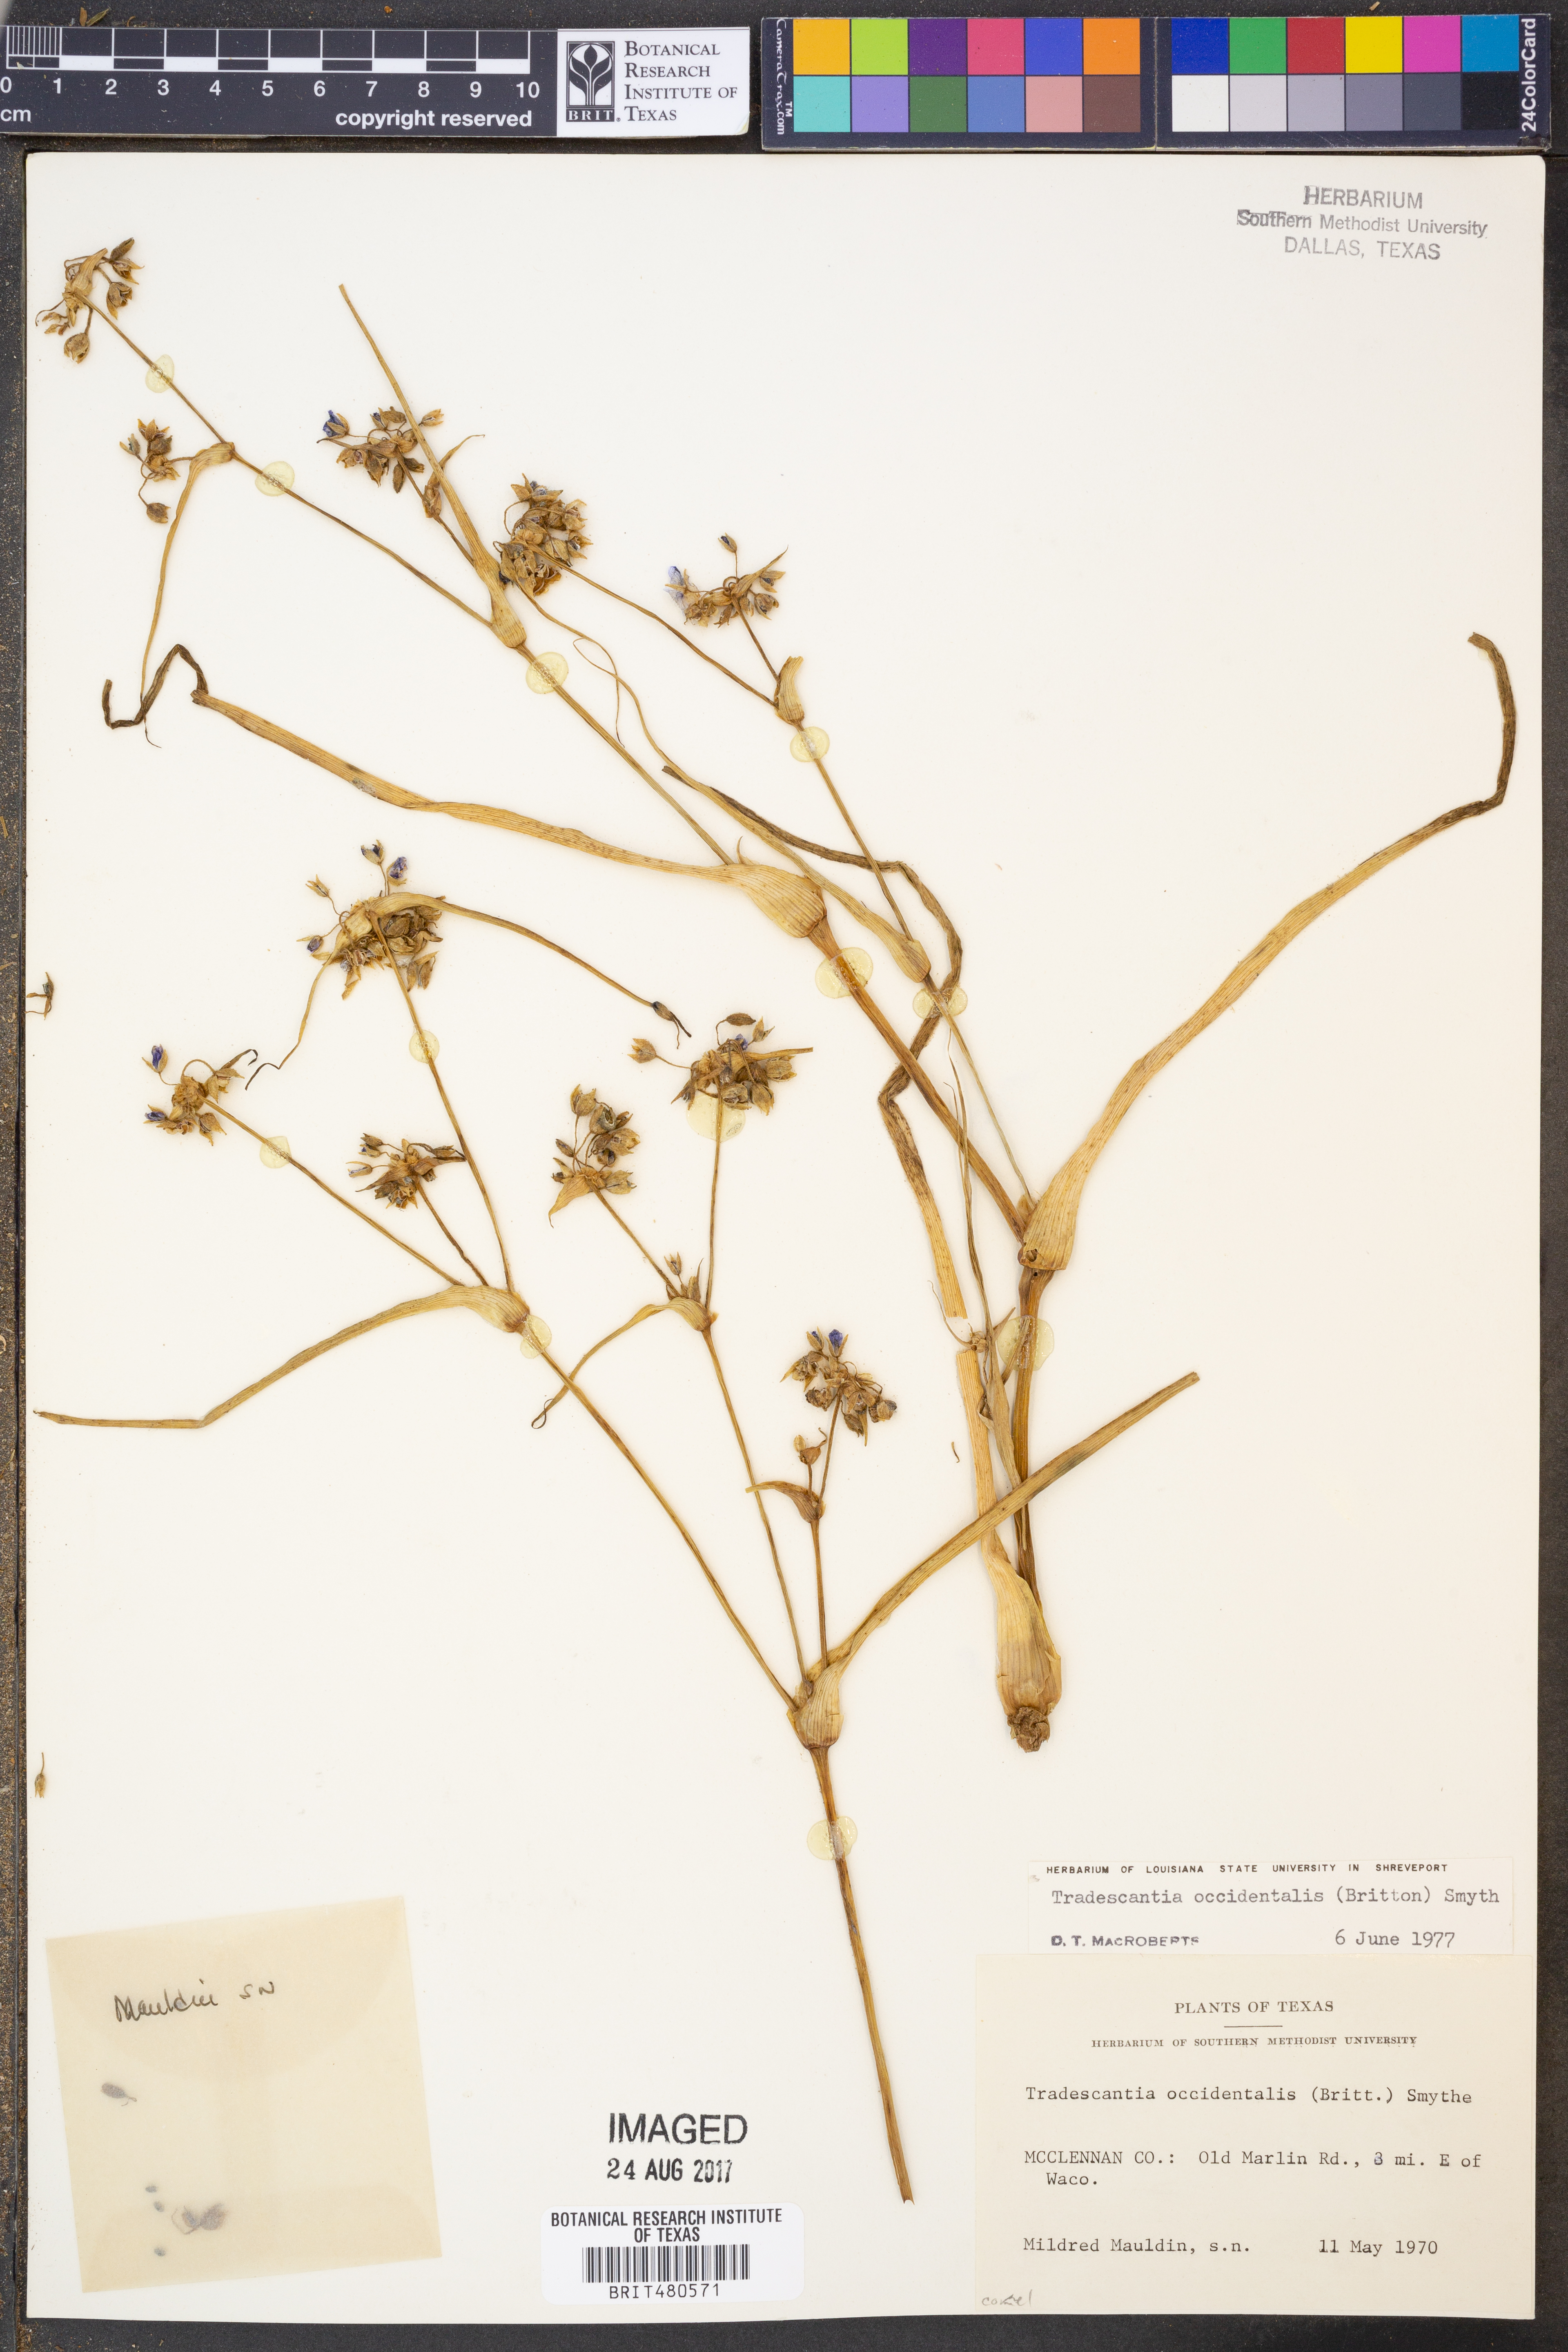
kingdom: Plantae
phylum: Tracheophyta
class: Liliopsida
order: Commelinales
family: Commelinaceae
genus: Tradescantia
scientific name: Tradescantia occidentalis
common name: Prairie spiderwort
